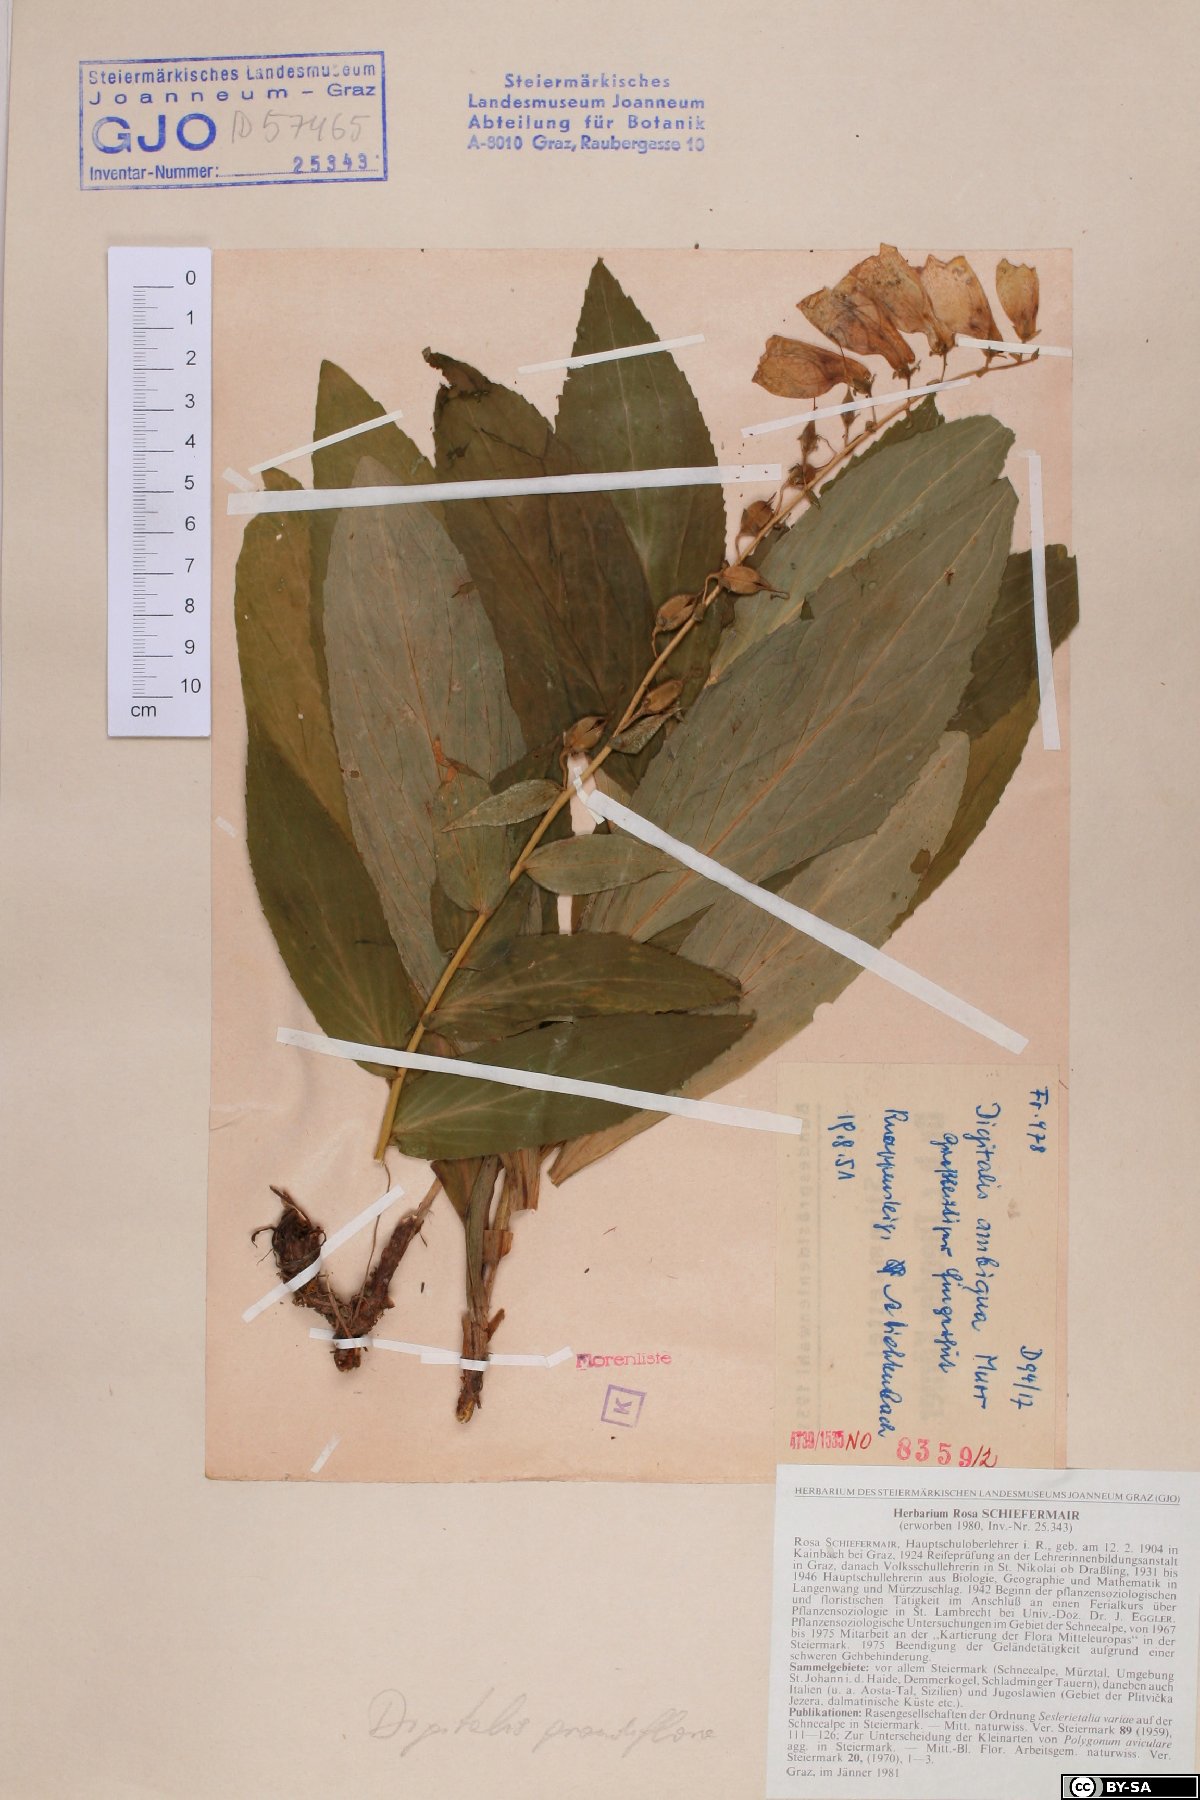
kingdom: Plantae
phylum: Tracheophyta
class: Magnoliopsida
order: Lamiales
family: Plantaginaceae
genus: Digitalis
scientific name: Digitalis grandiflora
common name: Yellow foxglove
